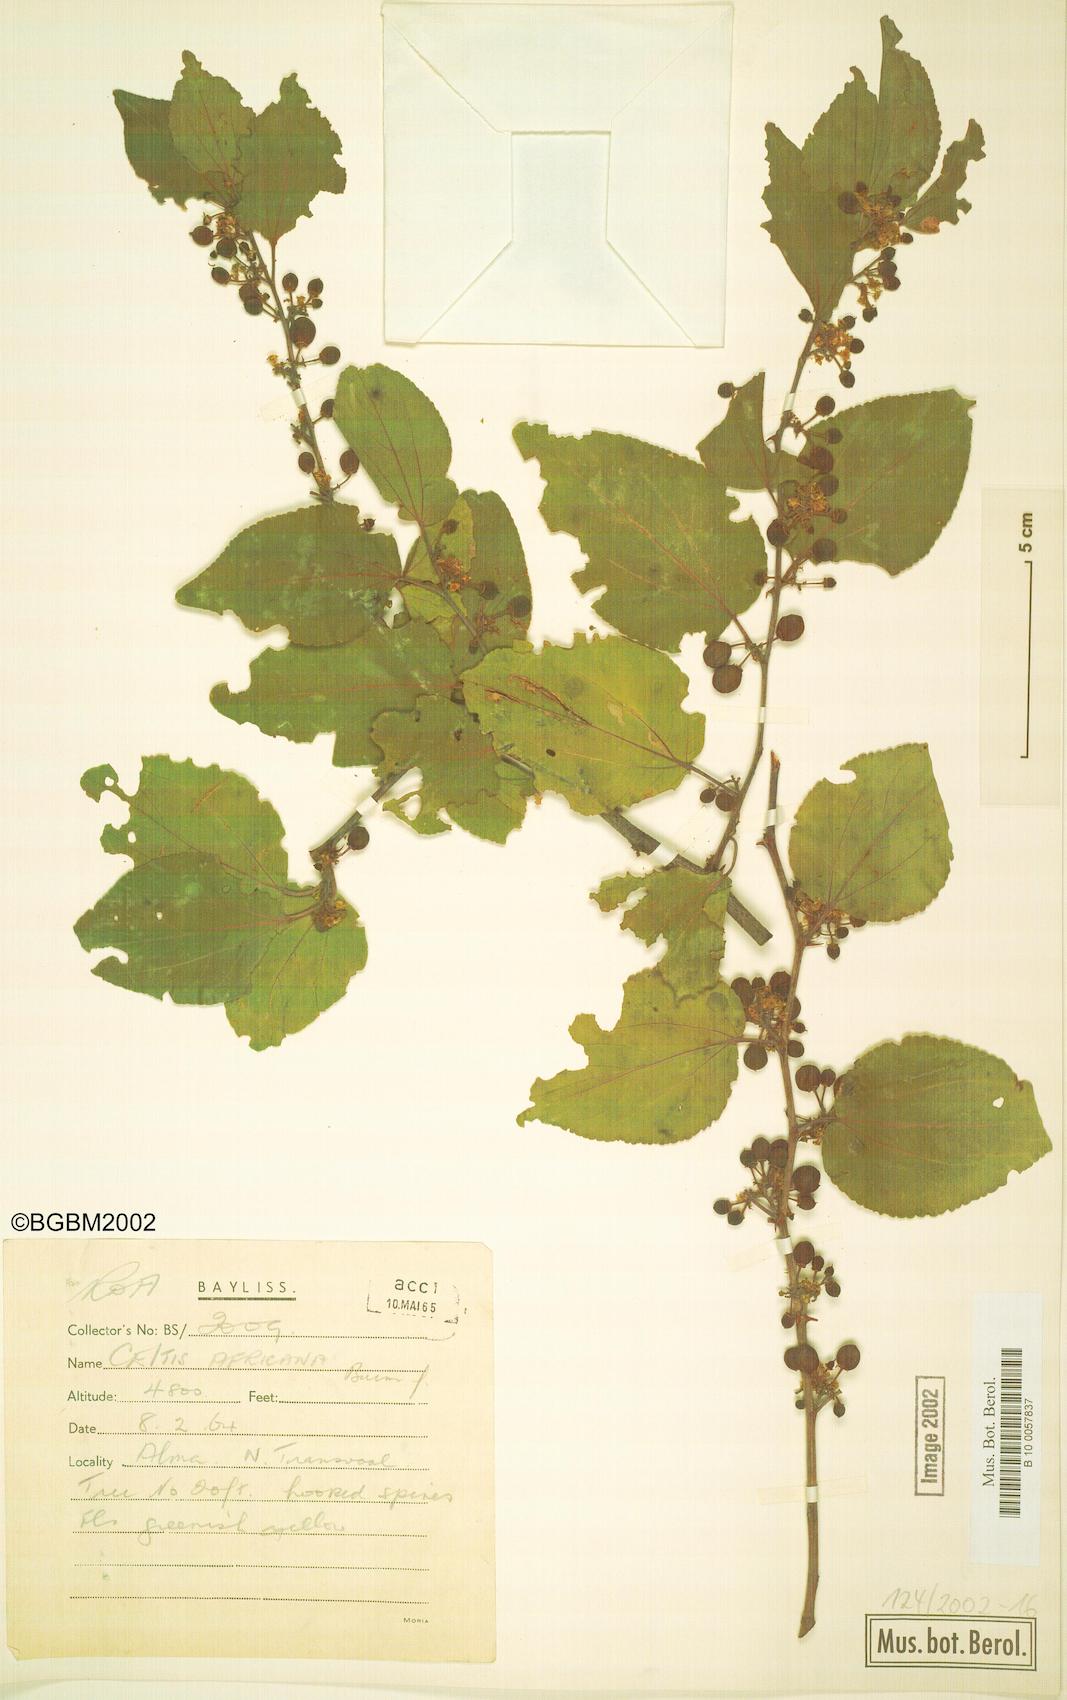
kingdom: Plantae
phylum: Tracheophyta
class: Magnoliopsida
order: Rosales
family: Cannabaceae
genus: Celtis
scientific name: Celtis africana
